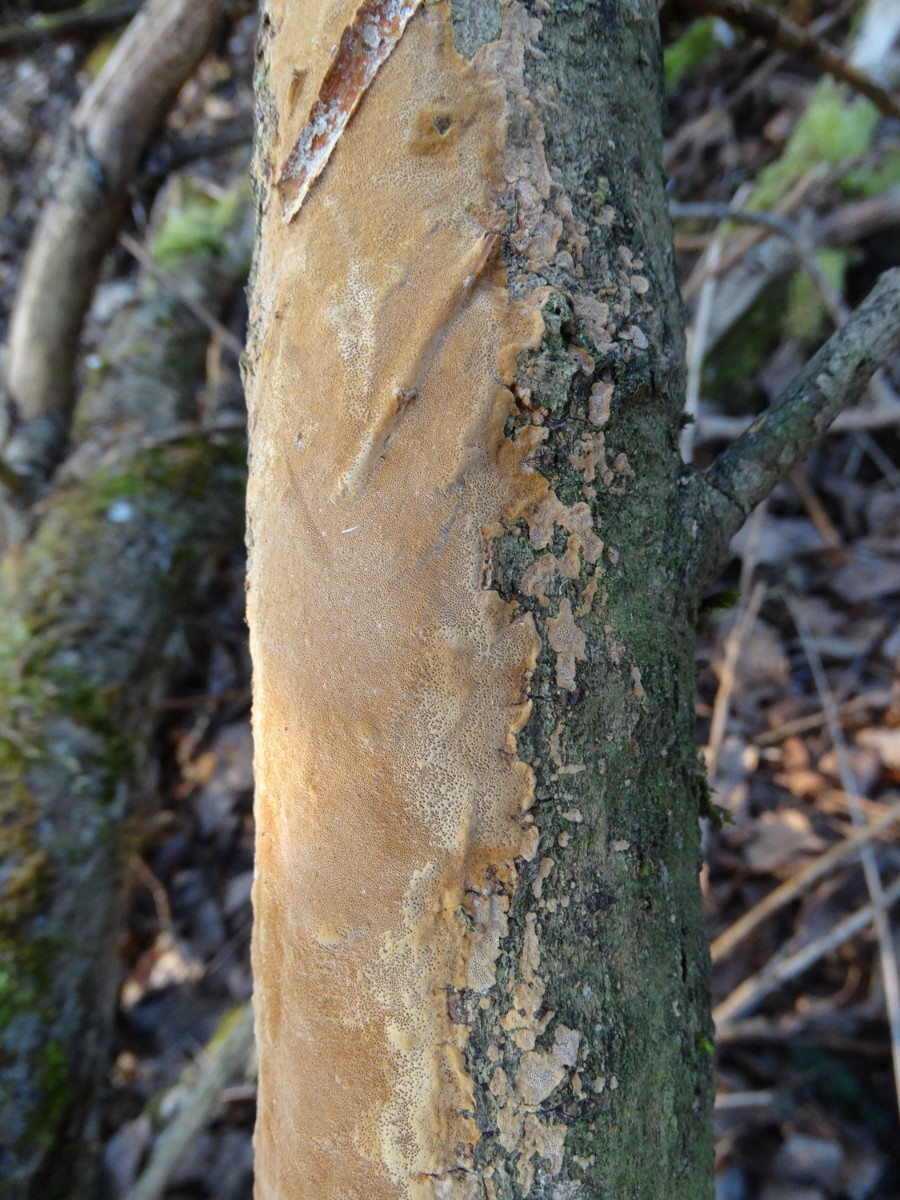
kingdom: Fungi
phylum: Basidiomycota
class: Agaricomycetes
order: Hymenochaetales
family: Hymenochaetaceae
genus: Fuscoporia
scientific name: Fuscoporia ferrea
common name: skorpe-ildporesvamp
